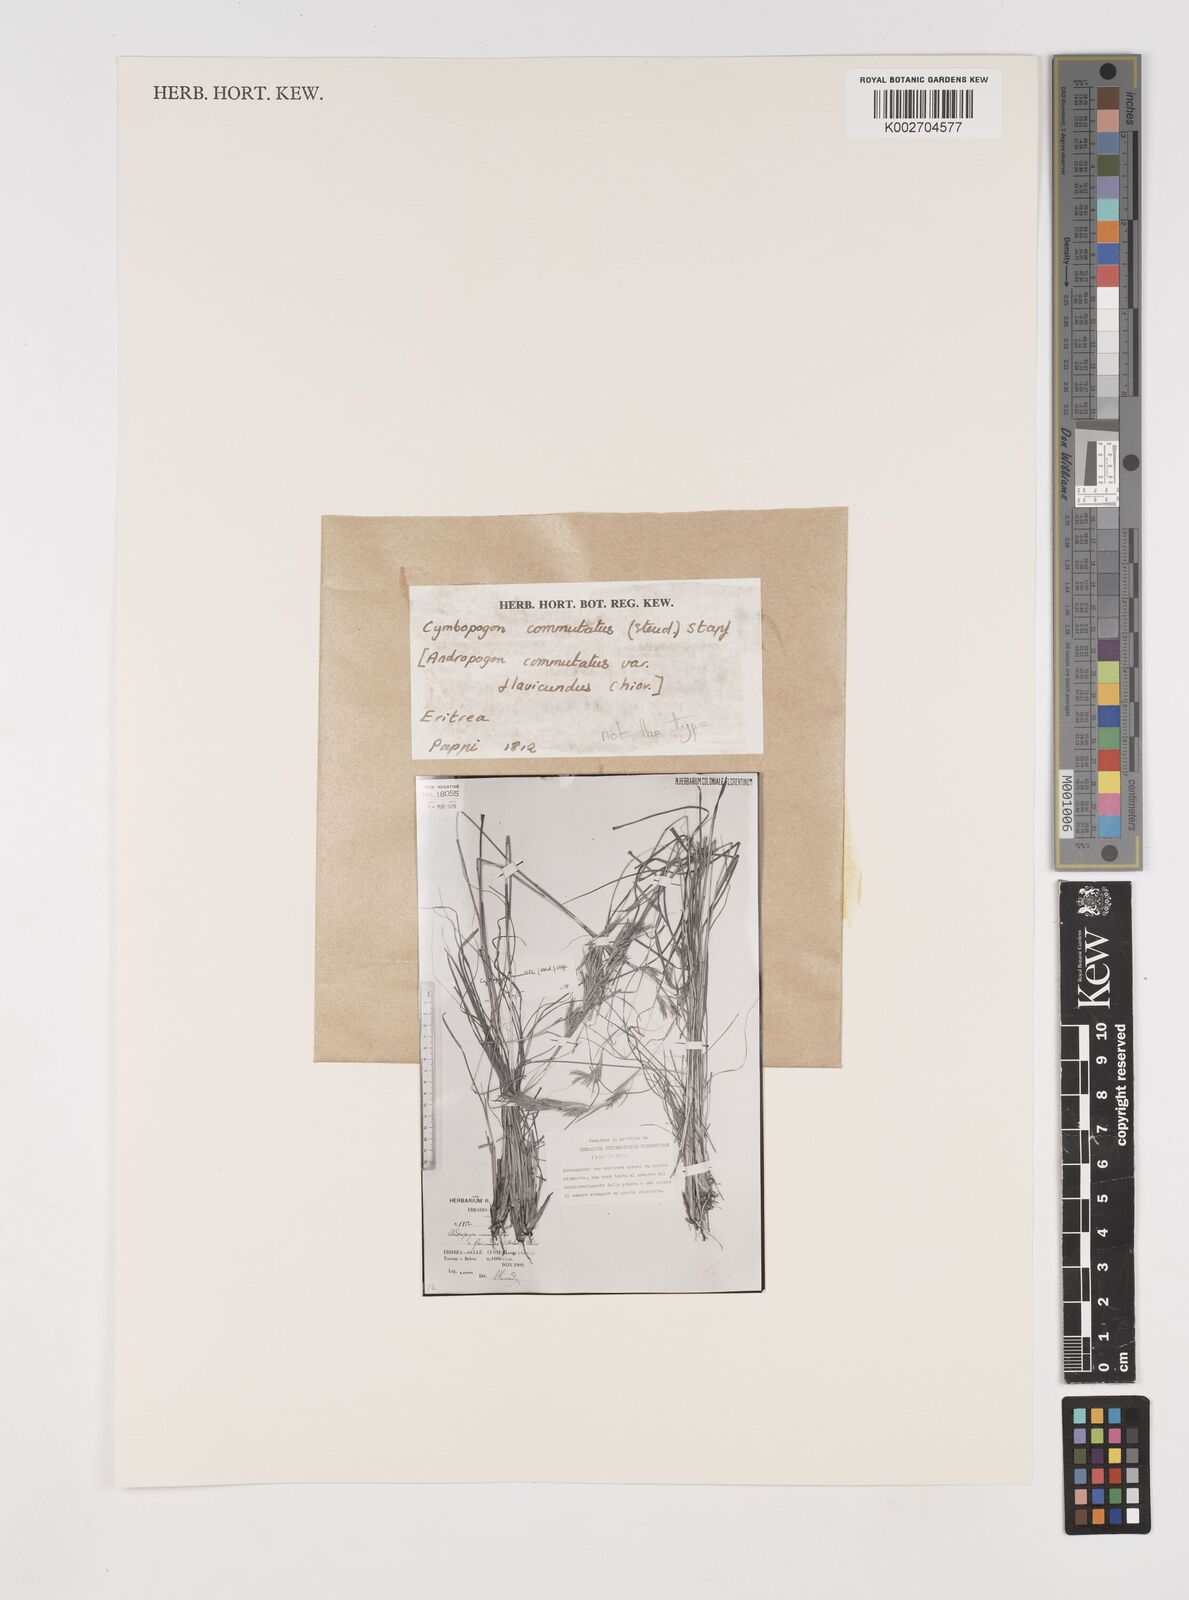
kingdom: Plantae
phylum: Tracheophyta
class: Liliopsida
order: Poales
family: Poaceae
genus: Cymbopogon
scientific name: Cymbopogon commutatus
